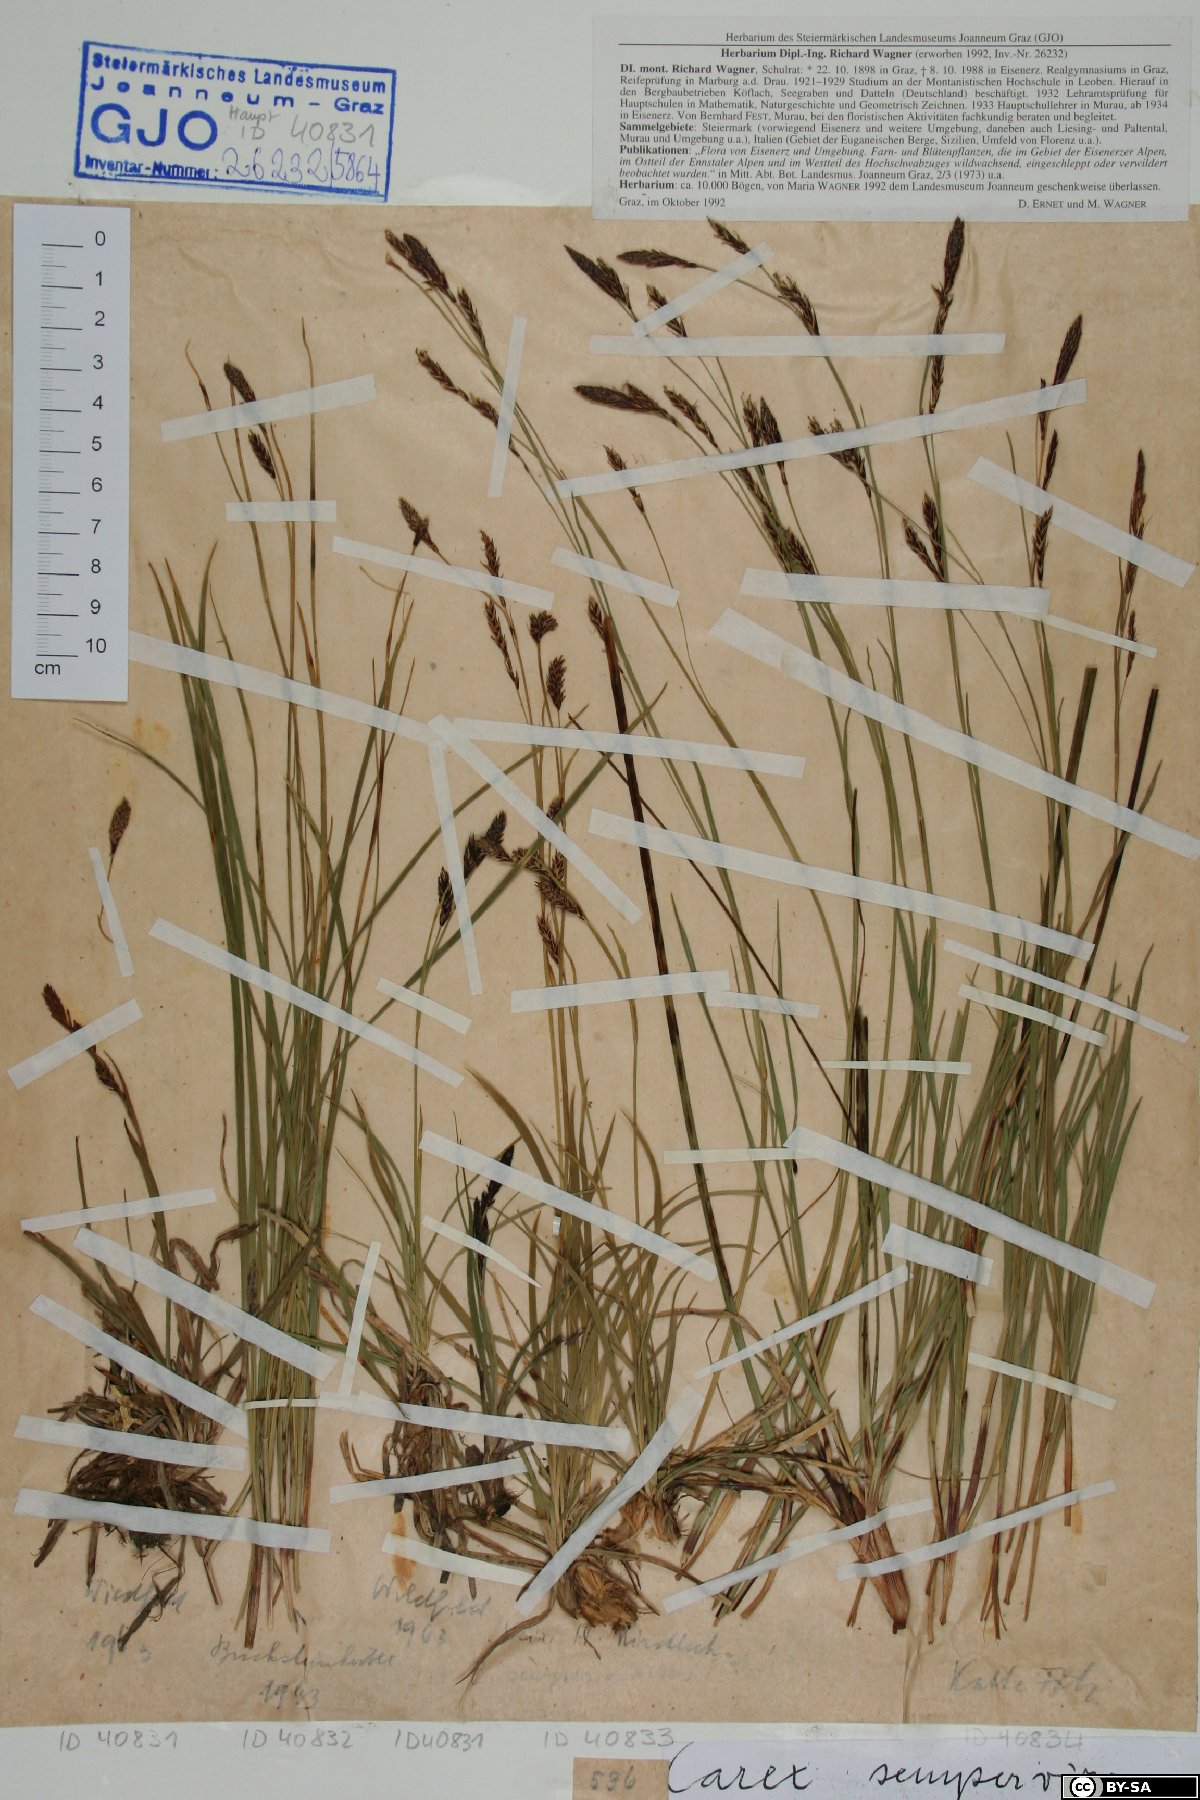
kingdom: Plantae
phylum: Tracheophyta
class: Liliopsida
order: Poales
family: Cyperaceae
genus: Carex
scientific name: Carex sempervirens
